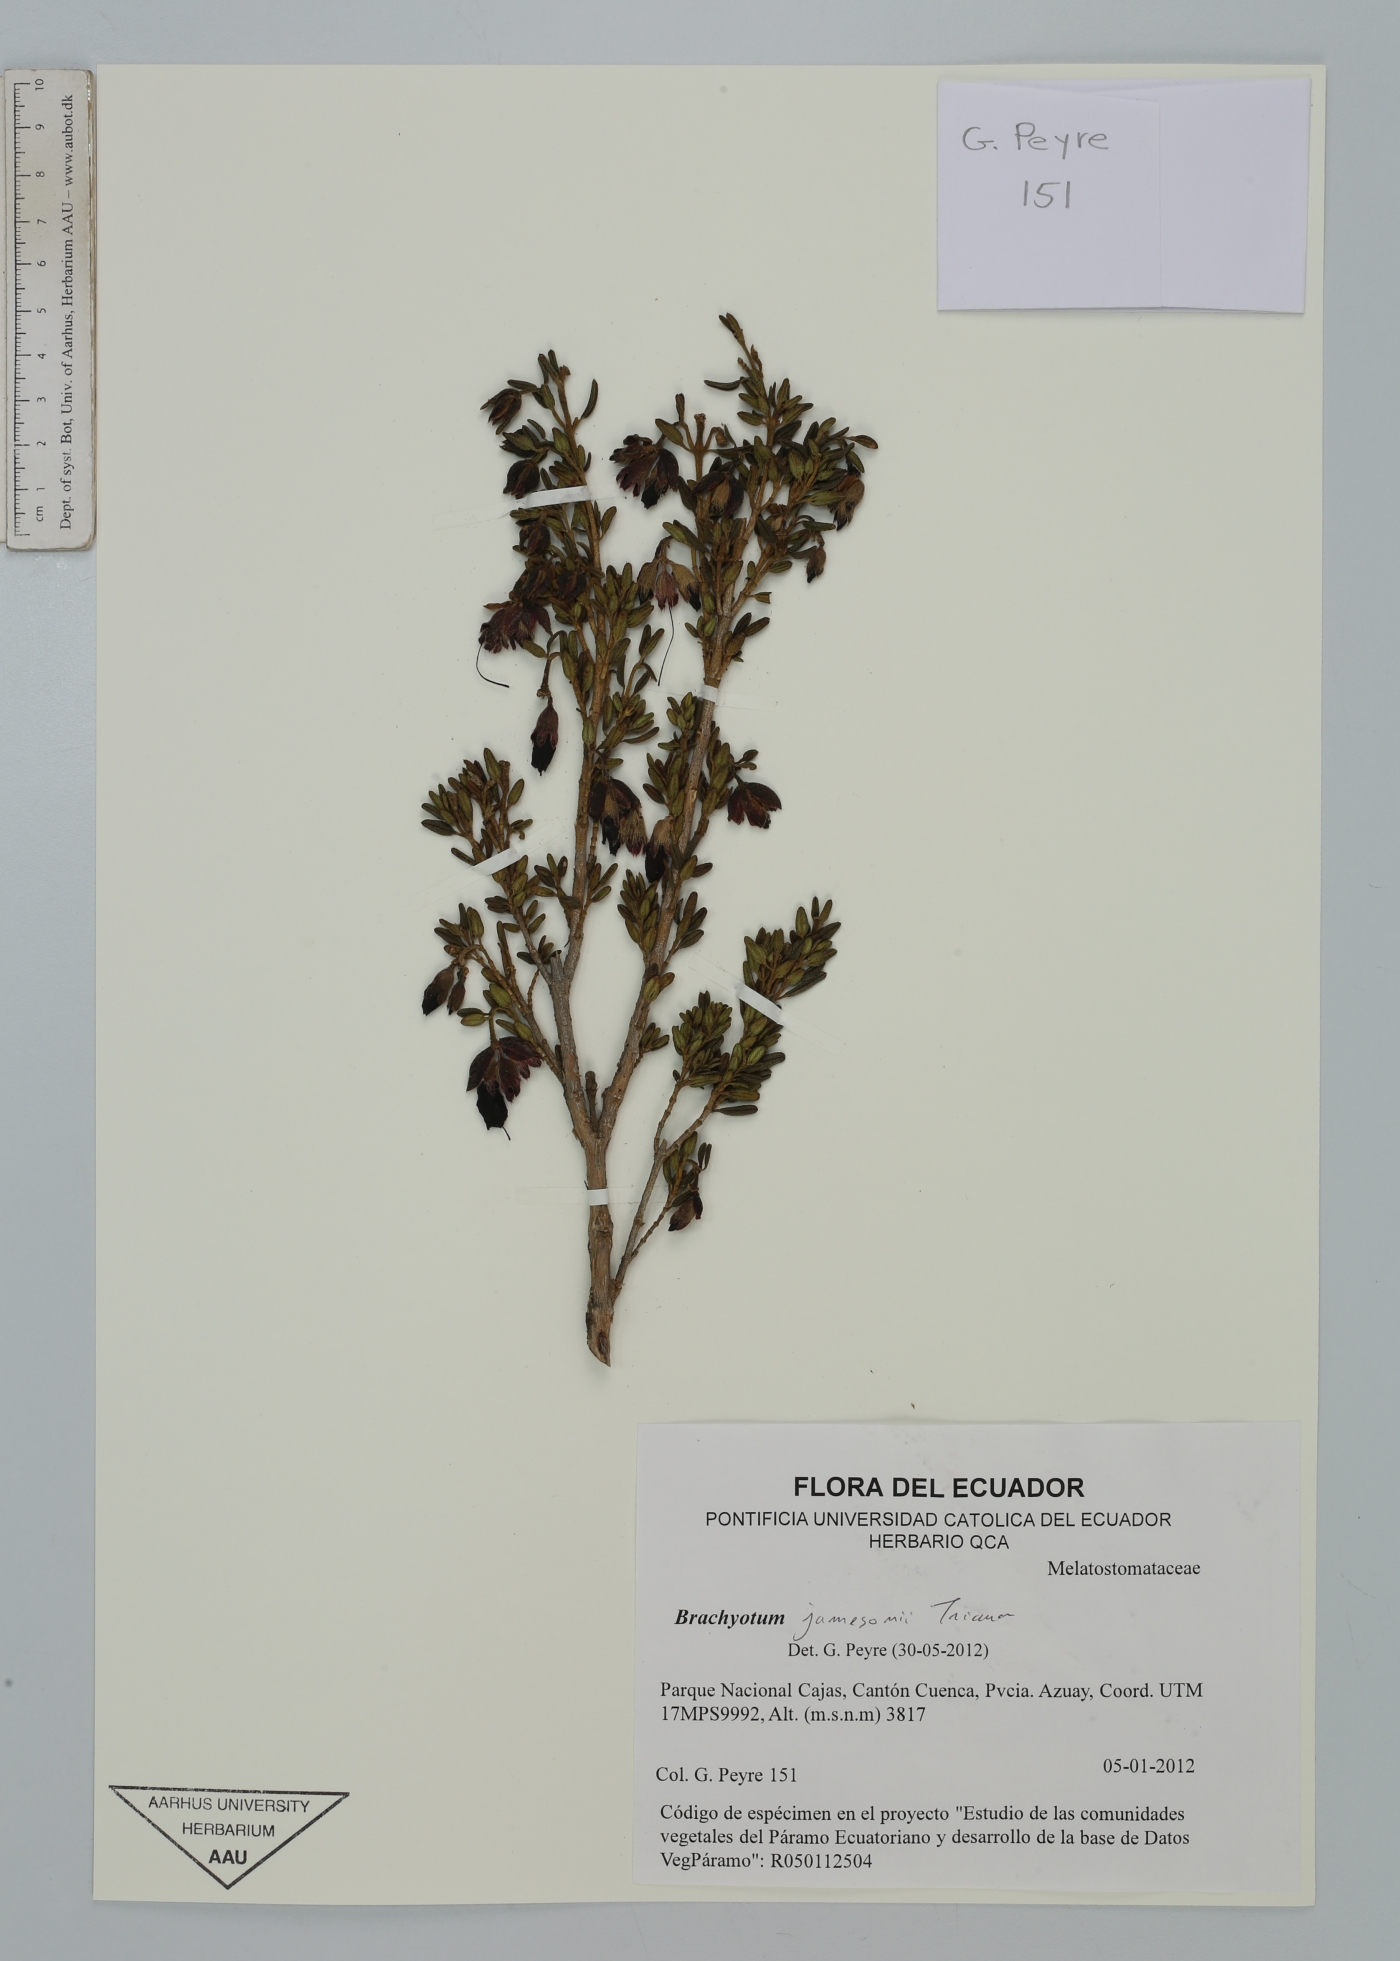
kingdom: Plantae
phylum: Tracheophyta
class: Magnoliopsida
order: Myrtales
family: Melastomataceae
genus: Brachyotum
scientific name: Brachyotum jamesonii
